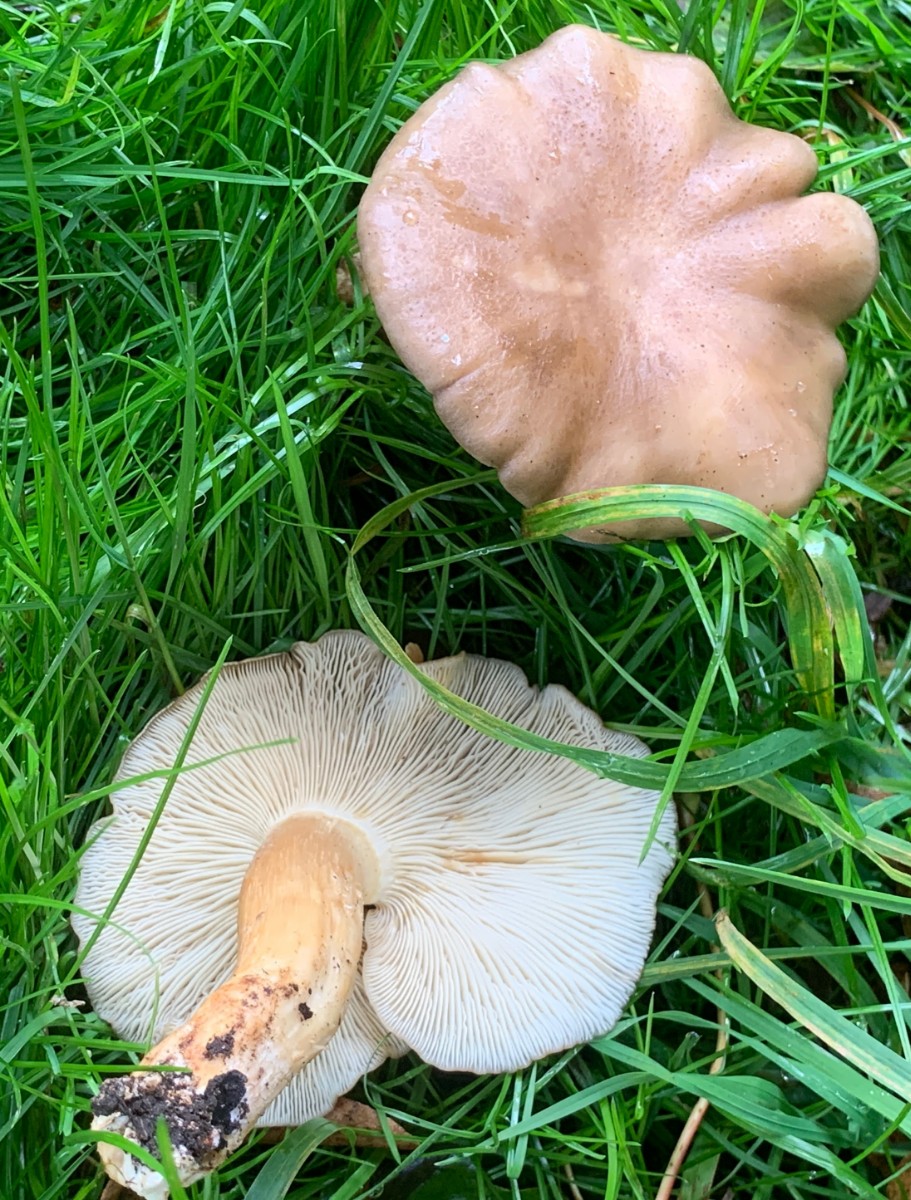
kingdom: Fungi
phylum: Basidiomycota
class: Agaricomycetes
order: Agaricales
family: Lyophyllaceae
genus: Lyophyllum
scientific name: Lyophyllum decastes
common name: røggrå gråblad
